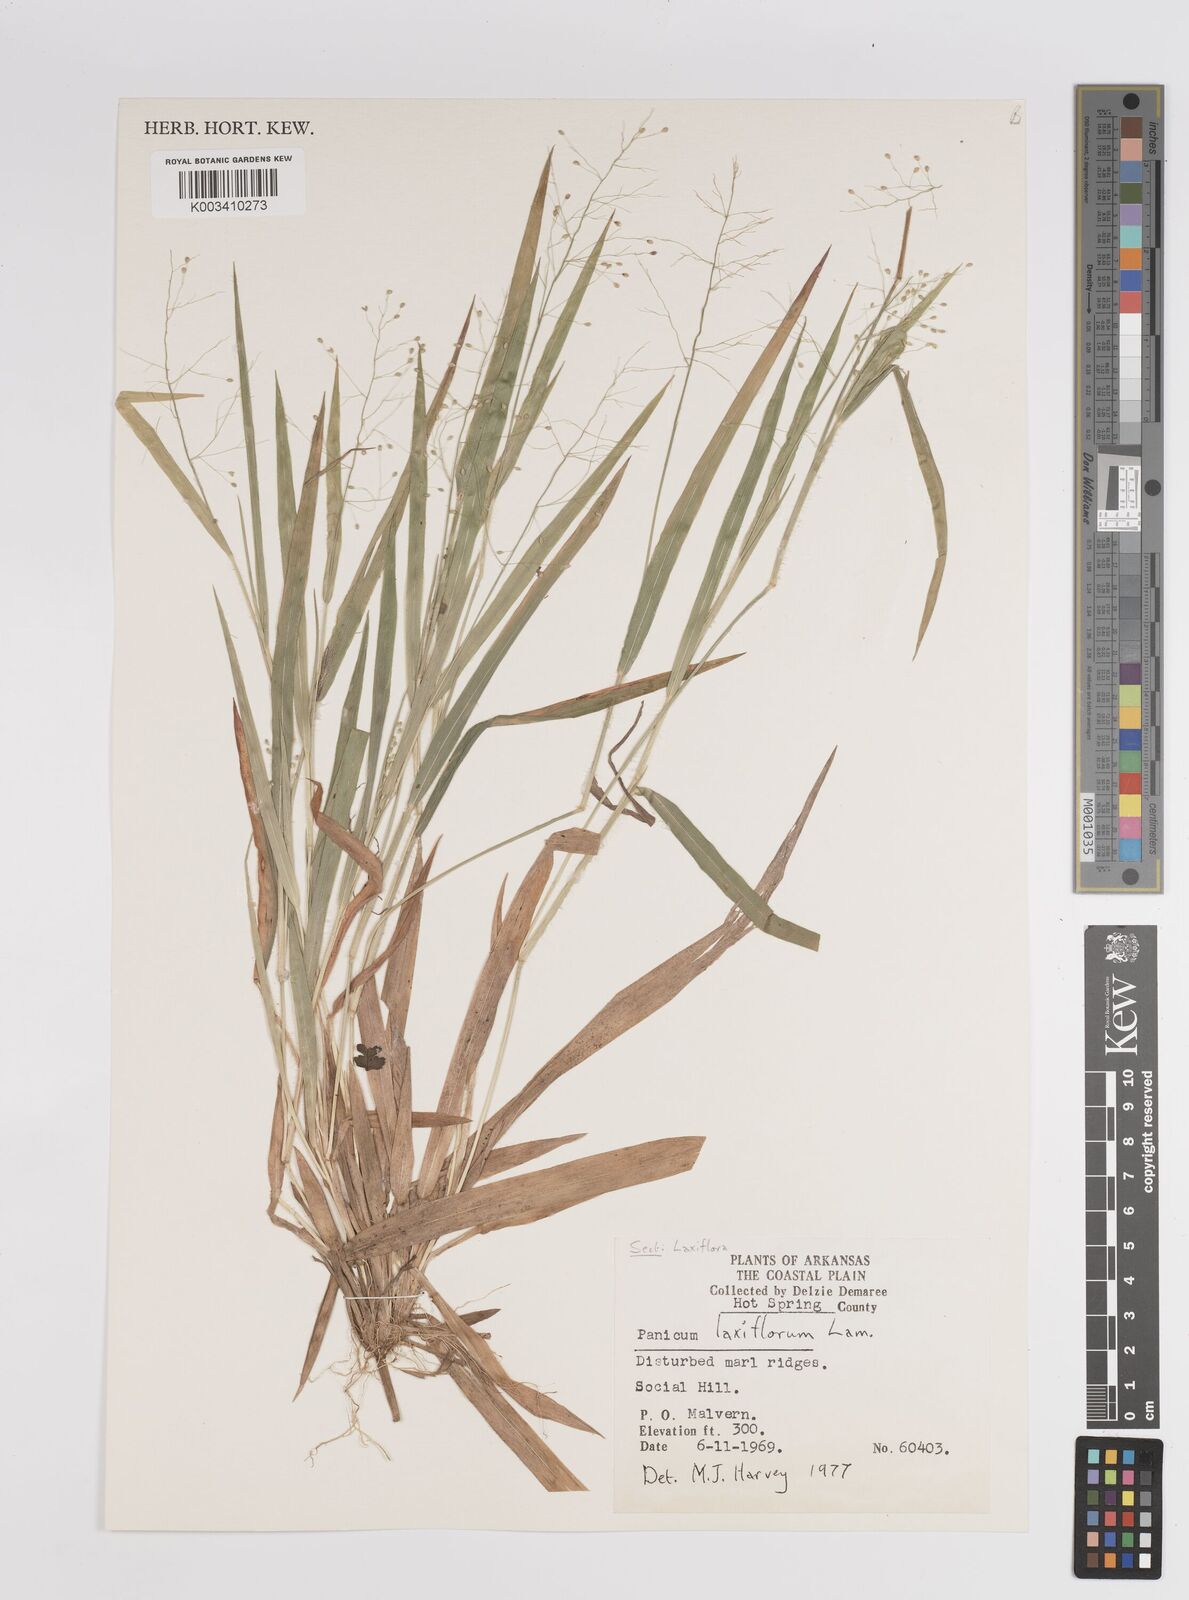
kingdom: Plantae
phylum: Tracheophyta
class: Liliopsida
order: Poales
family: Poaceae
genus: Dichanthelium
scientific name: Dichanthelium laxiflorum
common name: Soft-tuft panic grass
